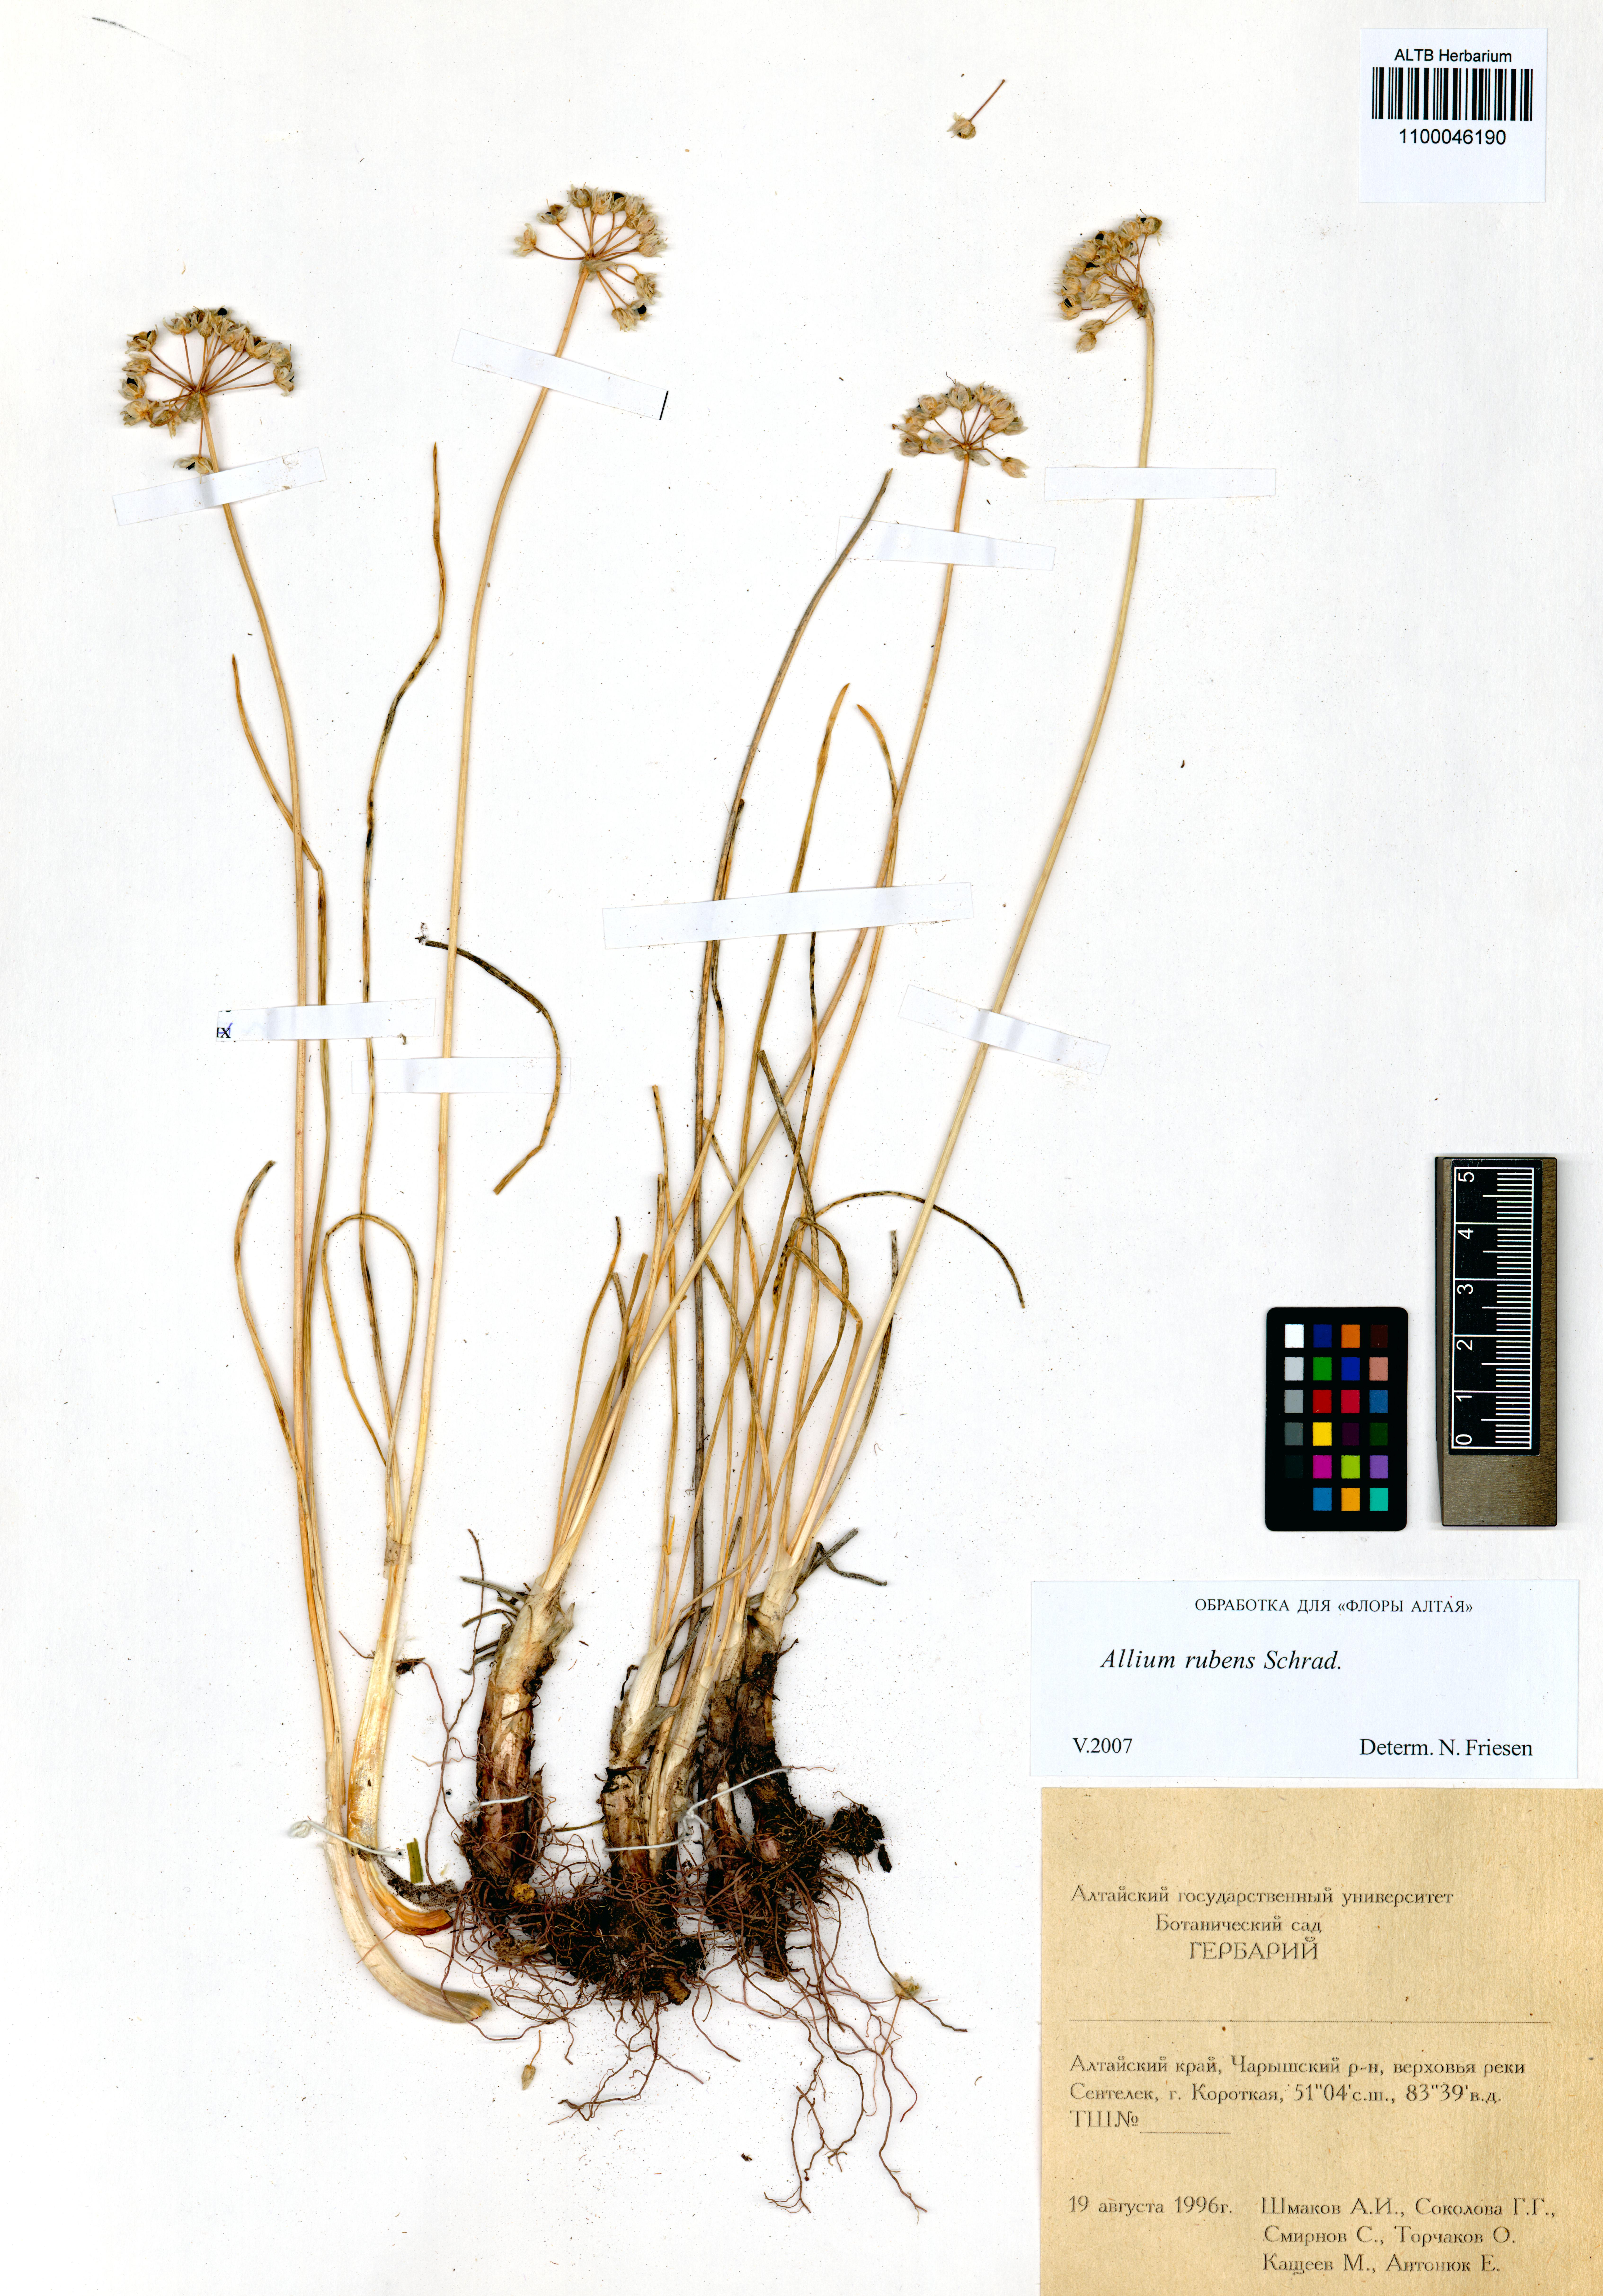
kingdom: Plantae
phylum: Tracheophyta
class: Liliopsida
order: Asparagales
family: Amaryllidaceae
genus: Allium
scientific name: Allium rubens
